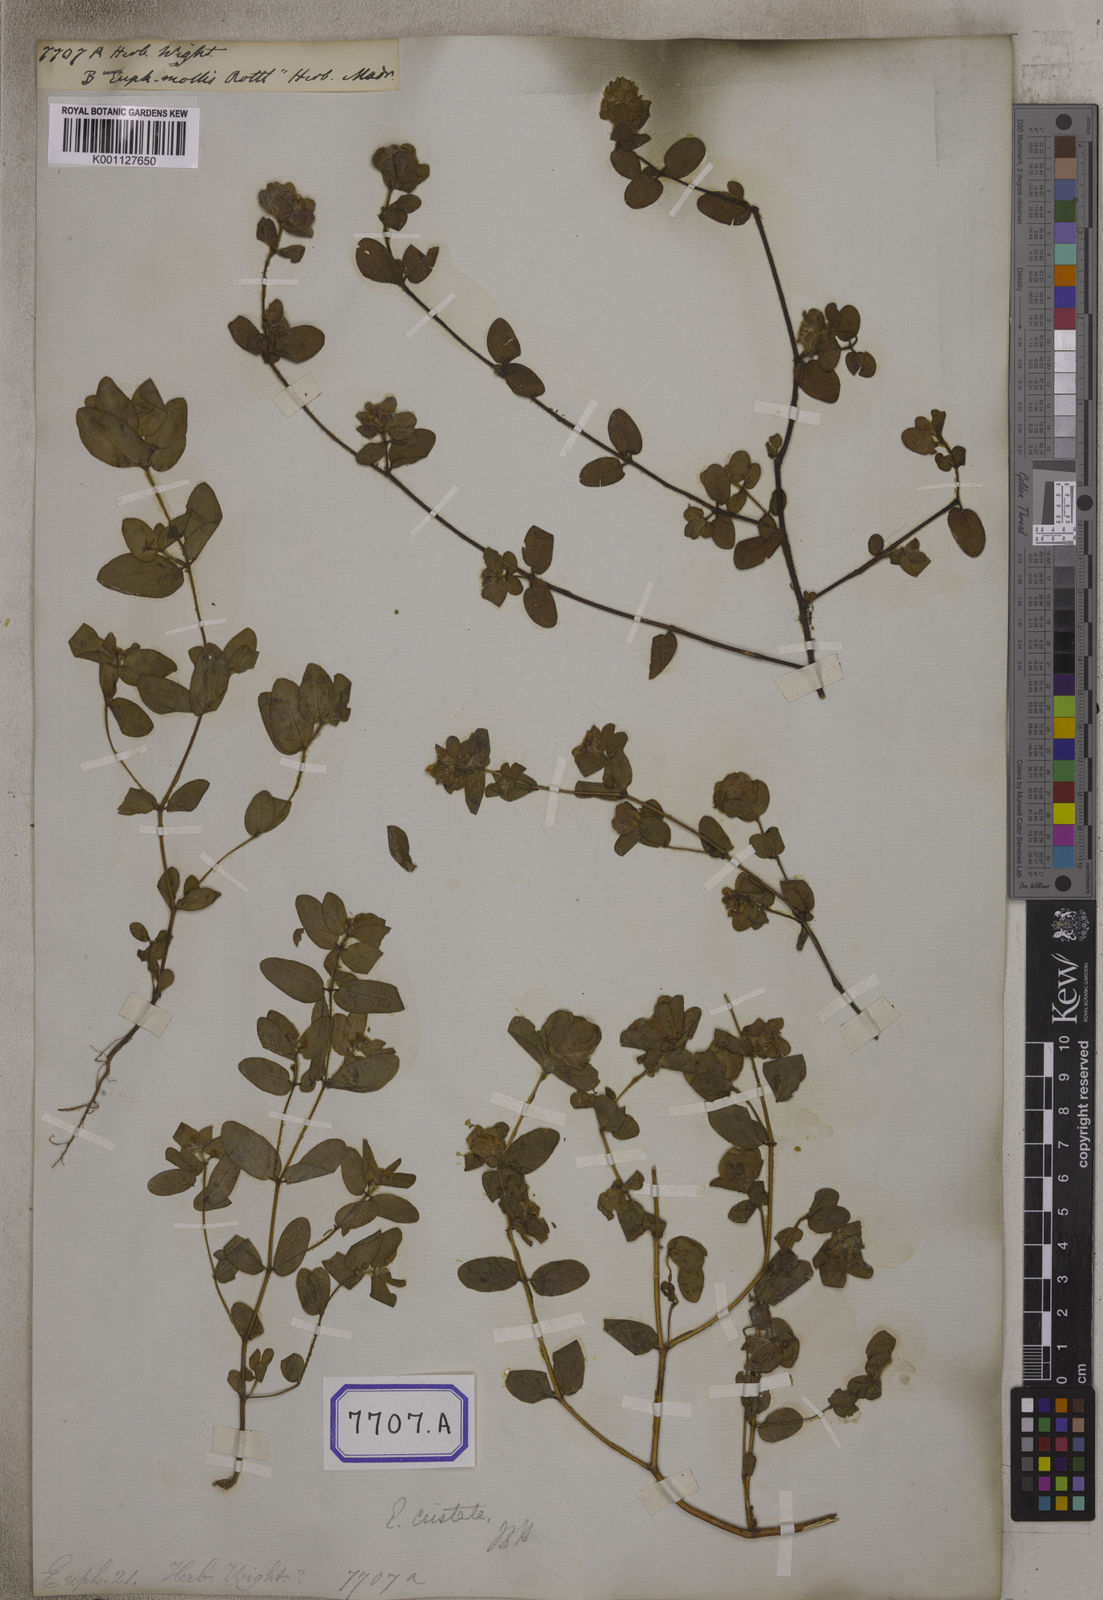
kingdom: Plantae
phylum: Tracheophyta
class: Magnoliopsida
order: Malpighiales
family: Euphorbiaceae
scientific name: Euphorbiaceae
